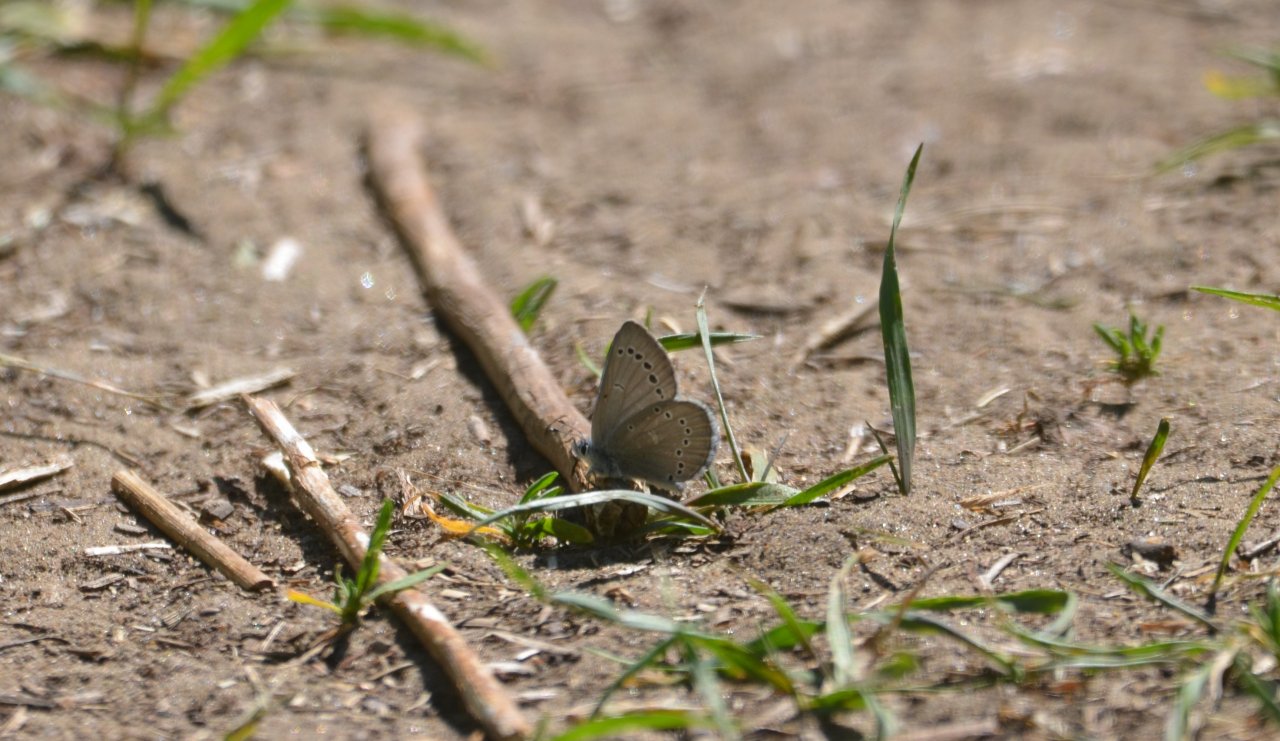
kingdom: Animalia
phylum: Arthropoda
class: Insecta
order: Lepidoptera
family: Lycaenidae
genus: Glaucopsyche
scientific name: Glaucopsyche lygdamus
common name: Silvery Blue
